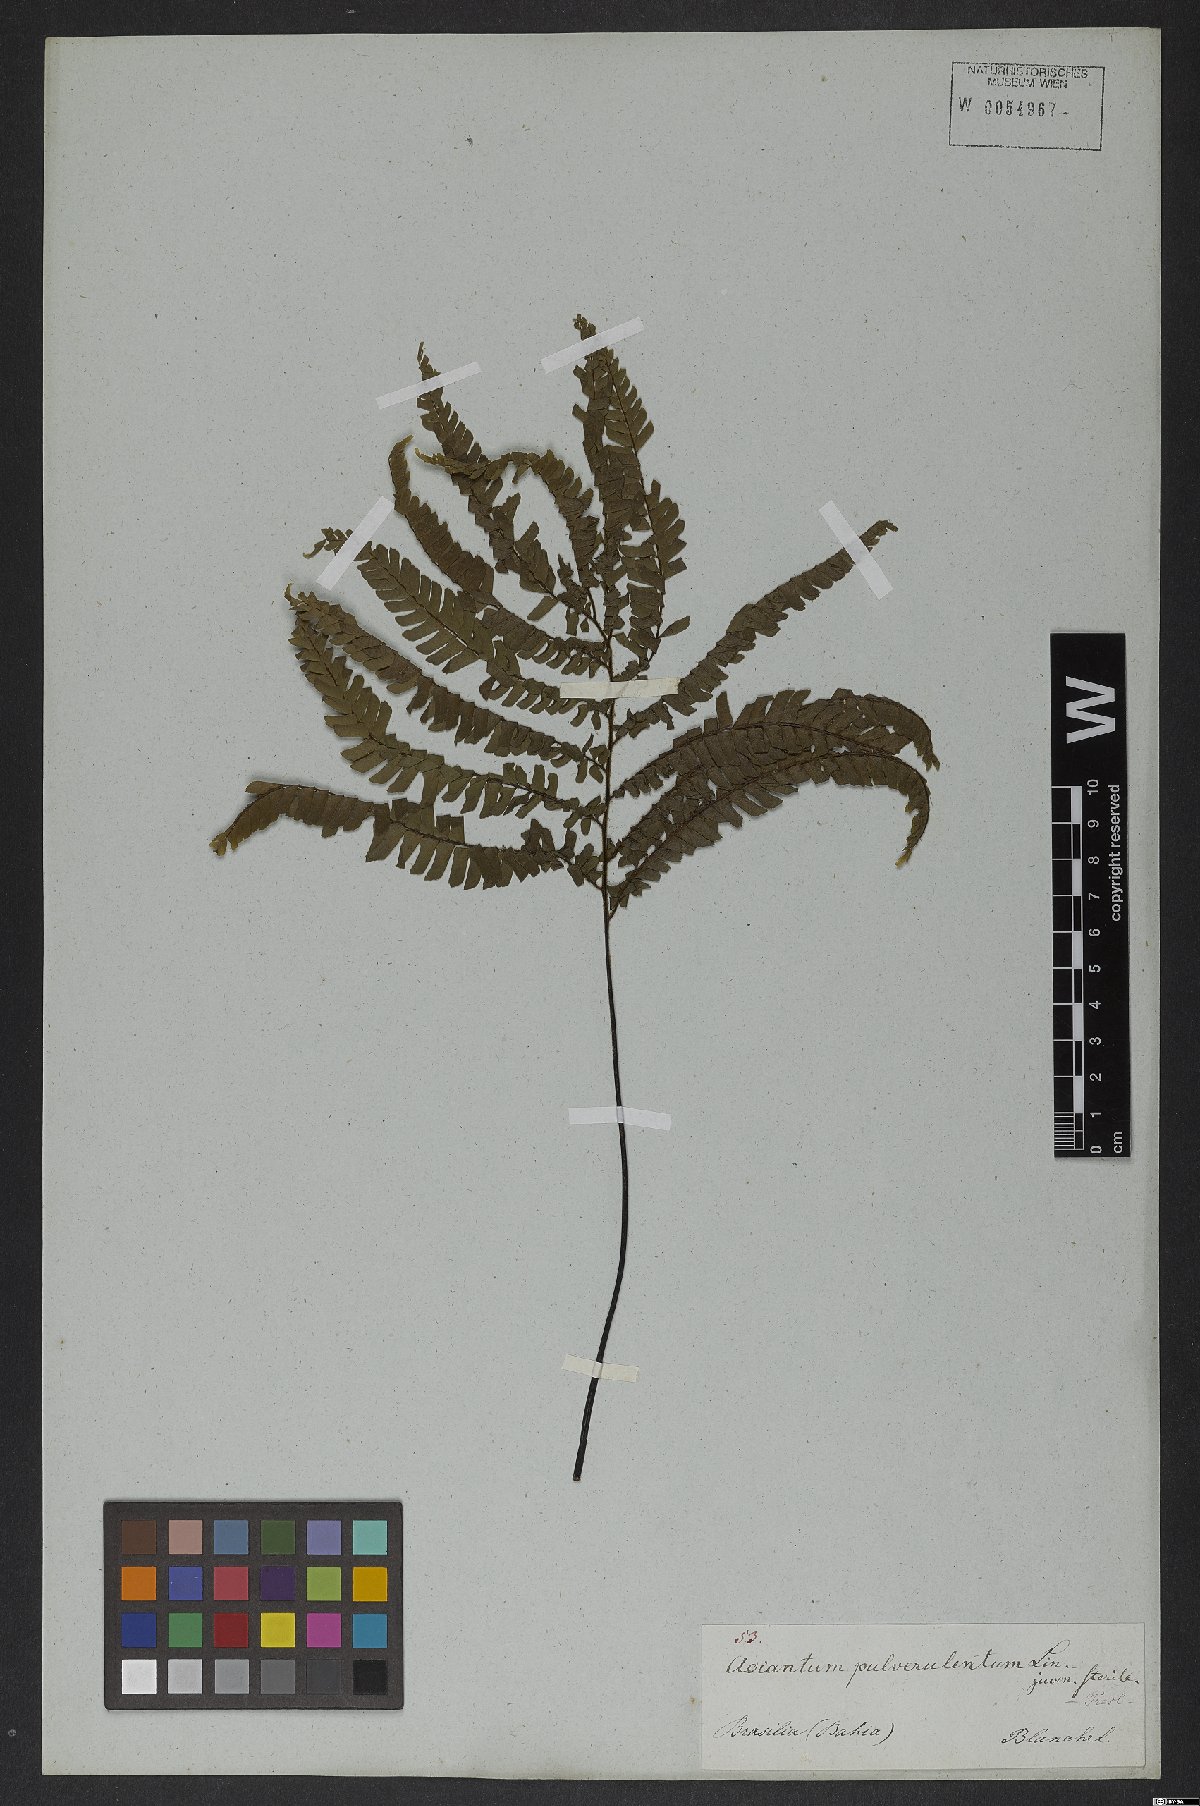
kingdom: Plantae
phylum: Tracheophyta
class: Polypodiopsida
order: Polypodiales
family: Pteridaceae
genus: Adiantum
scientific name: Adiantum pulverulentum
